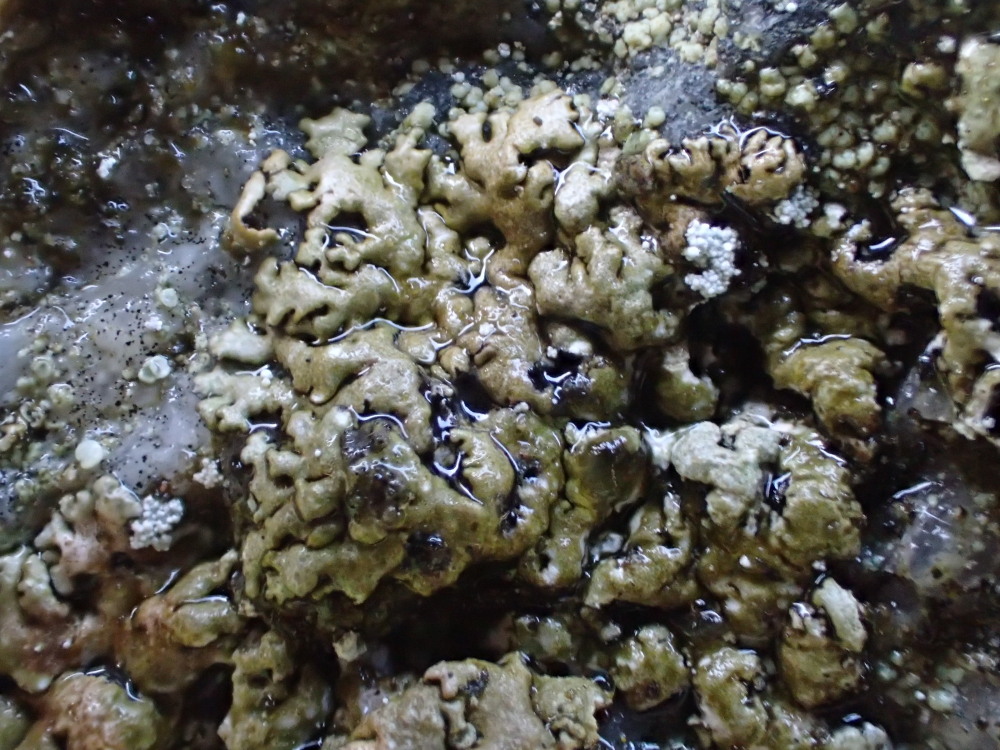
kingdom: Fungi
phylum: Ascomycota
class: Lecanoromycetes
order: Lecanorales
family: Parmeliaceae
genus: Xanthoparmelia
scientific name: Xanthoparmelia loxodes
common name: knudret skållav
